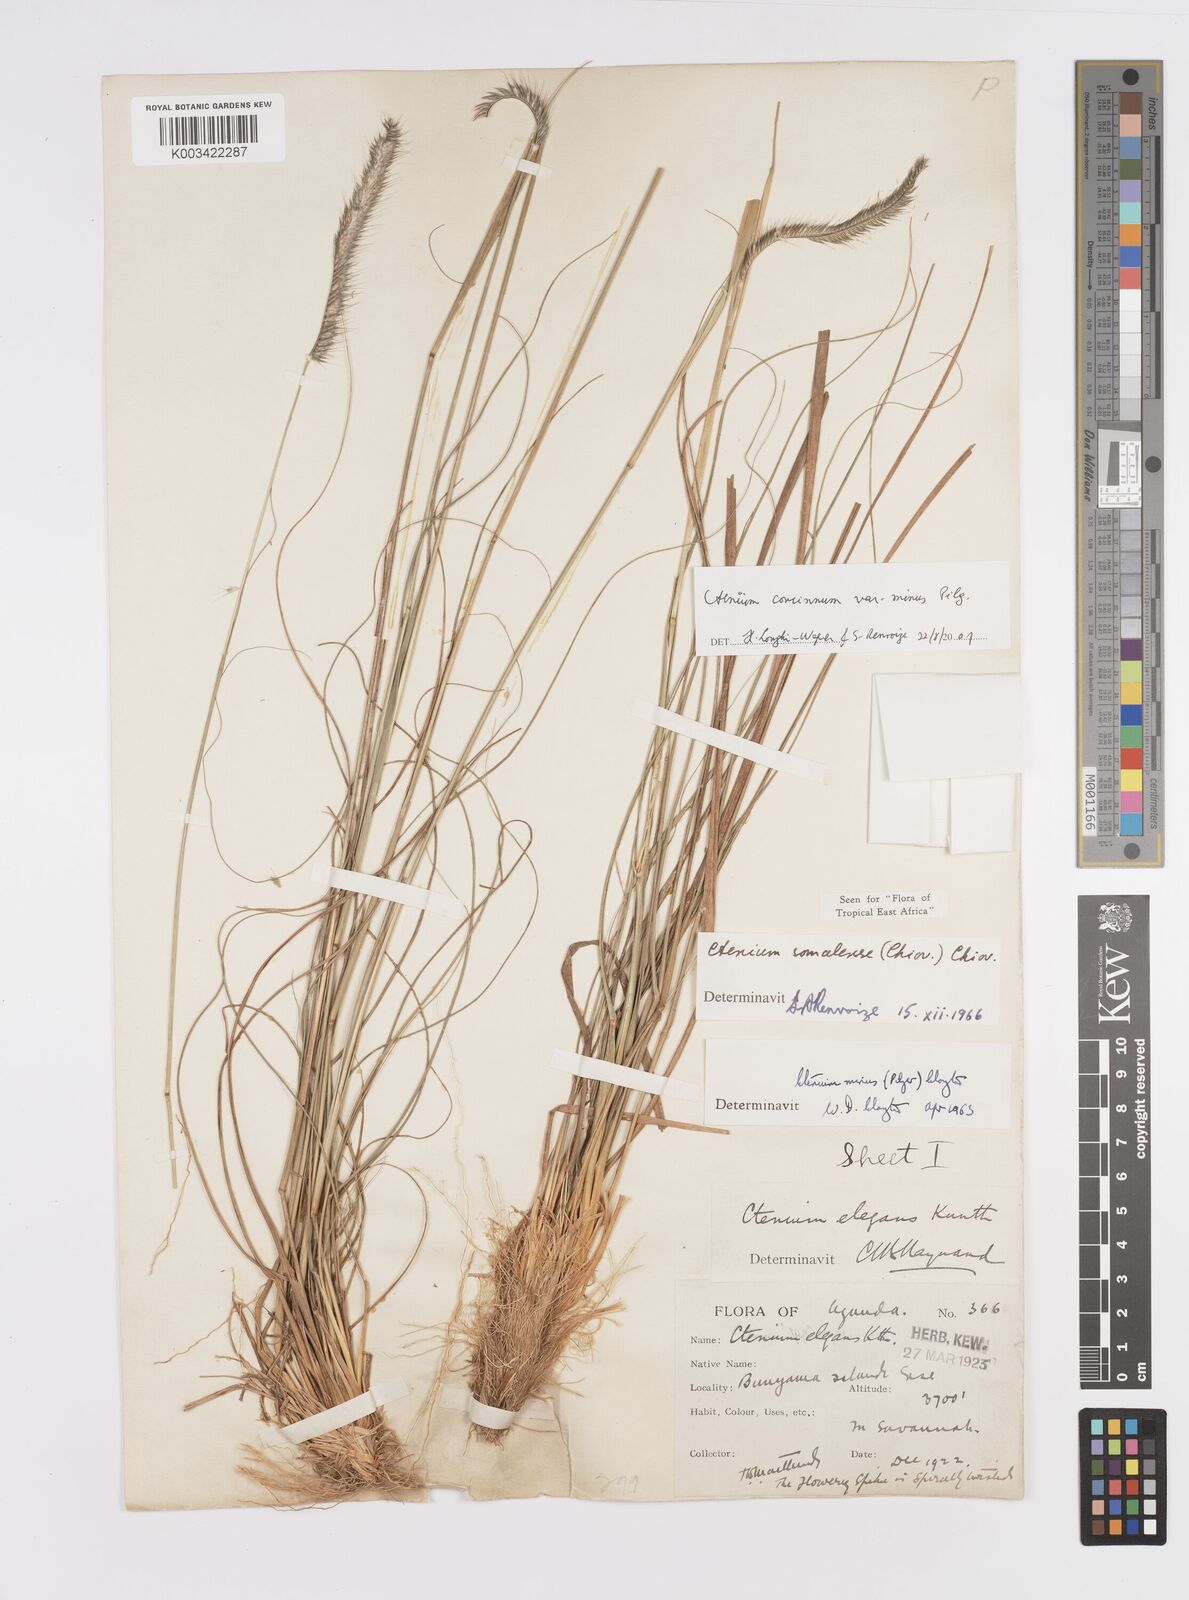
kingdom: Plantae
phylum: Tracheophyta
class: Liliopsida
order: Poales
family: Poaceae
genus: Ctenium
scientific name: Ctenium concinnum
